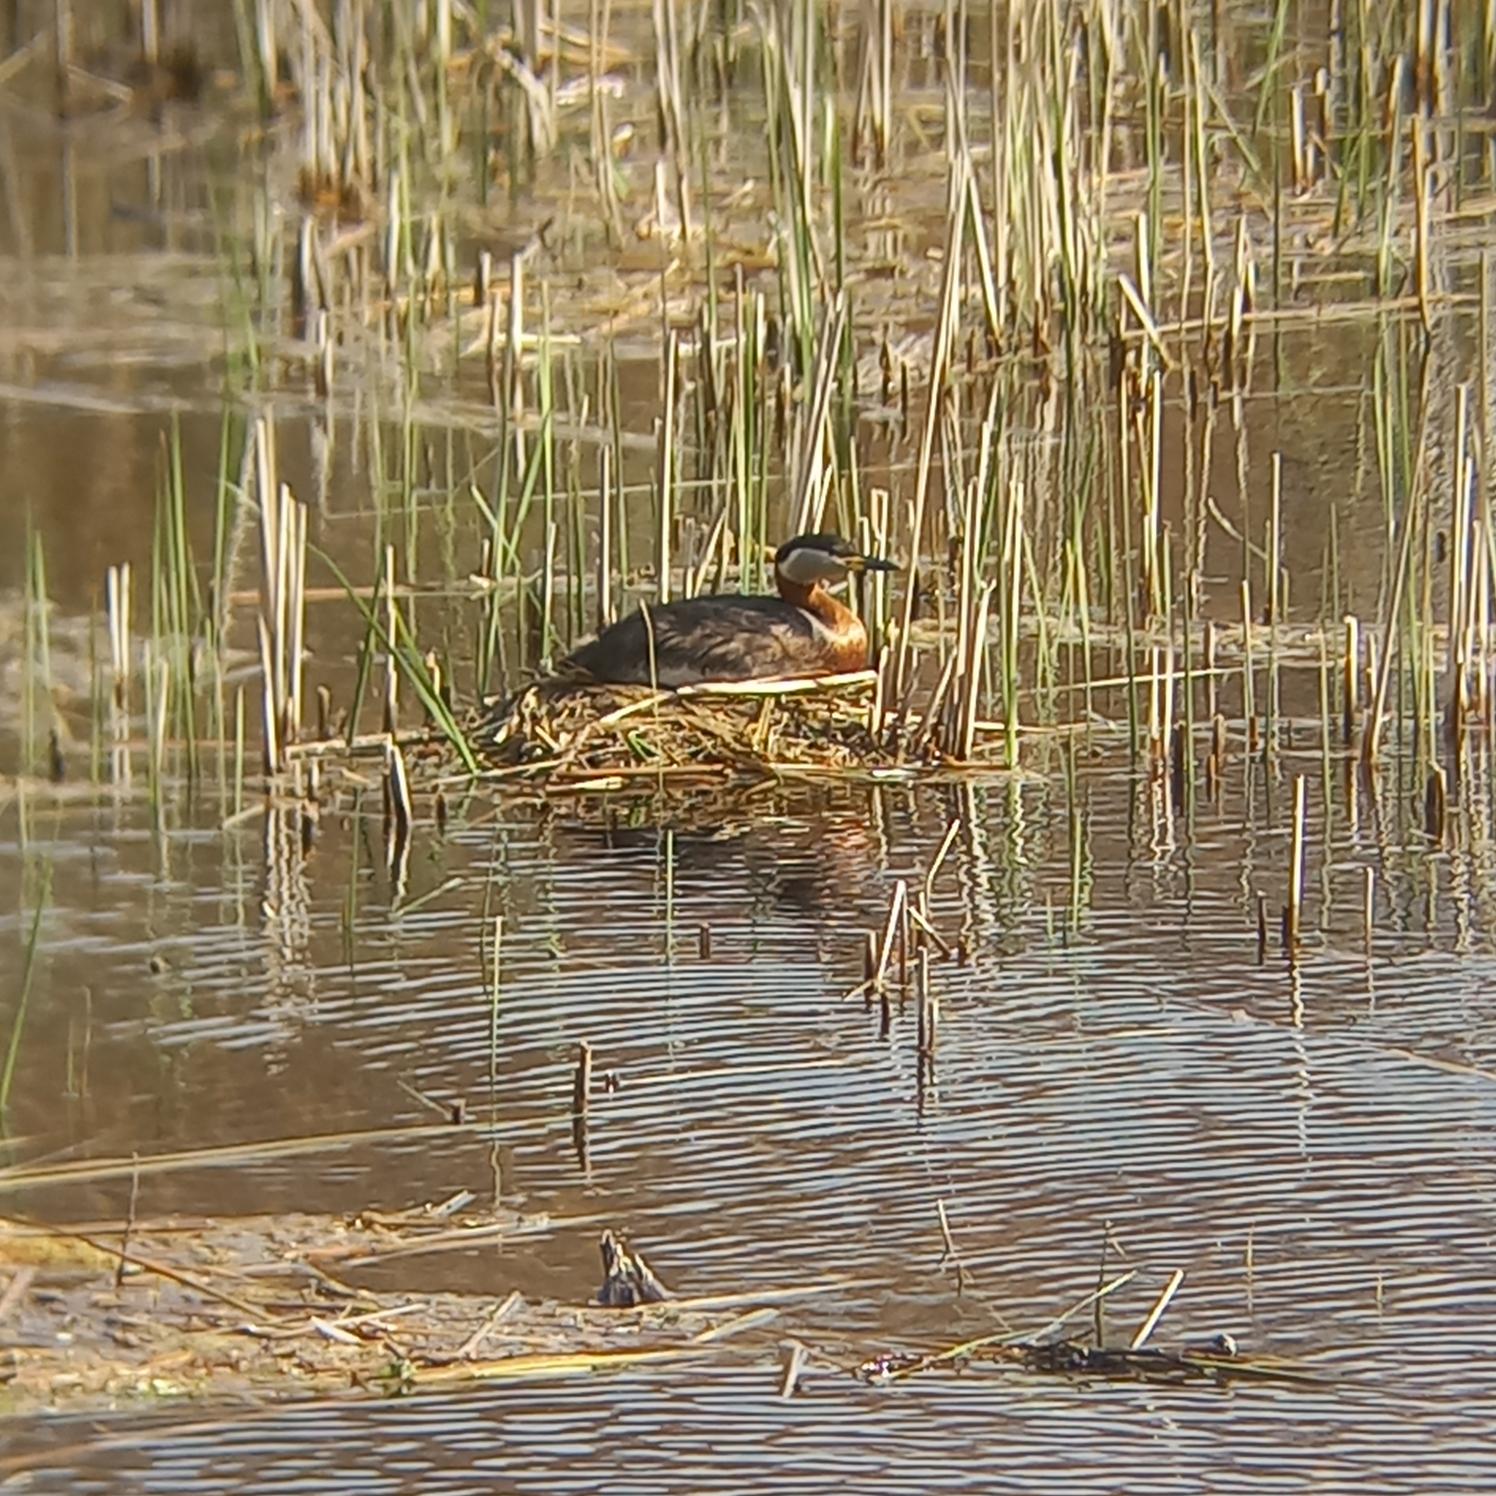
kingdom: Animalia
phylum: Chordata
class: Aves
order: Podicipediformes
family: Podicipedidae
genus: Podiceps
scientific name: Podiceps grisegena
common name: Gråstrubet lappedykker
